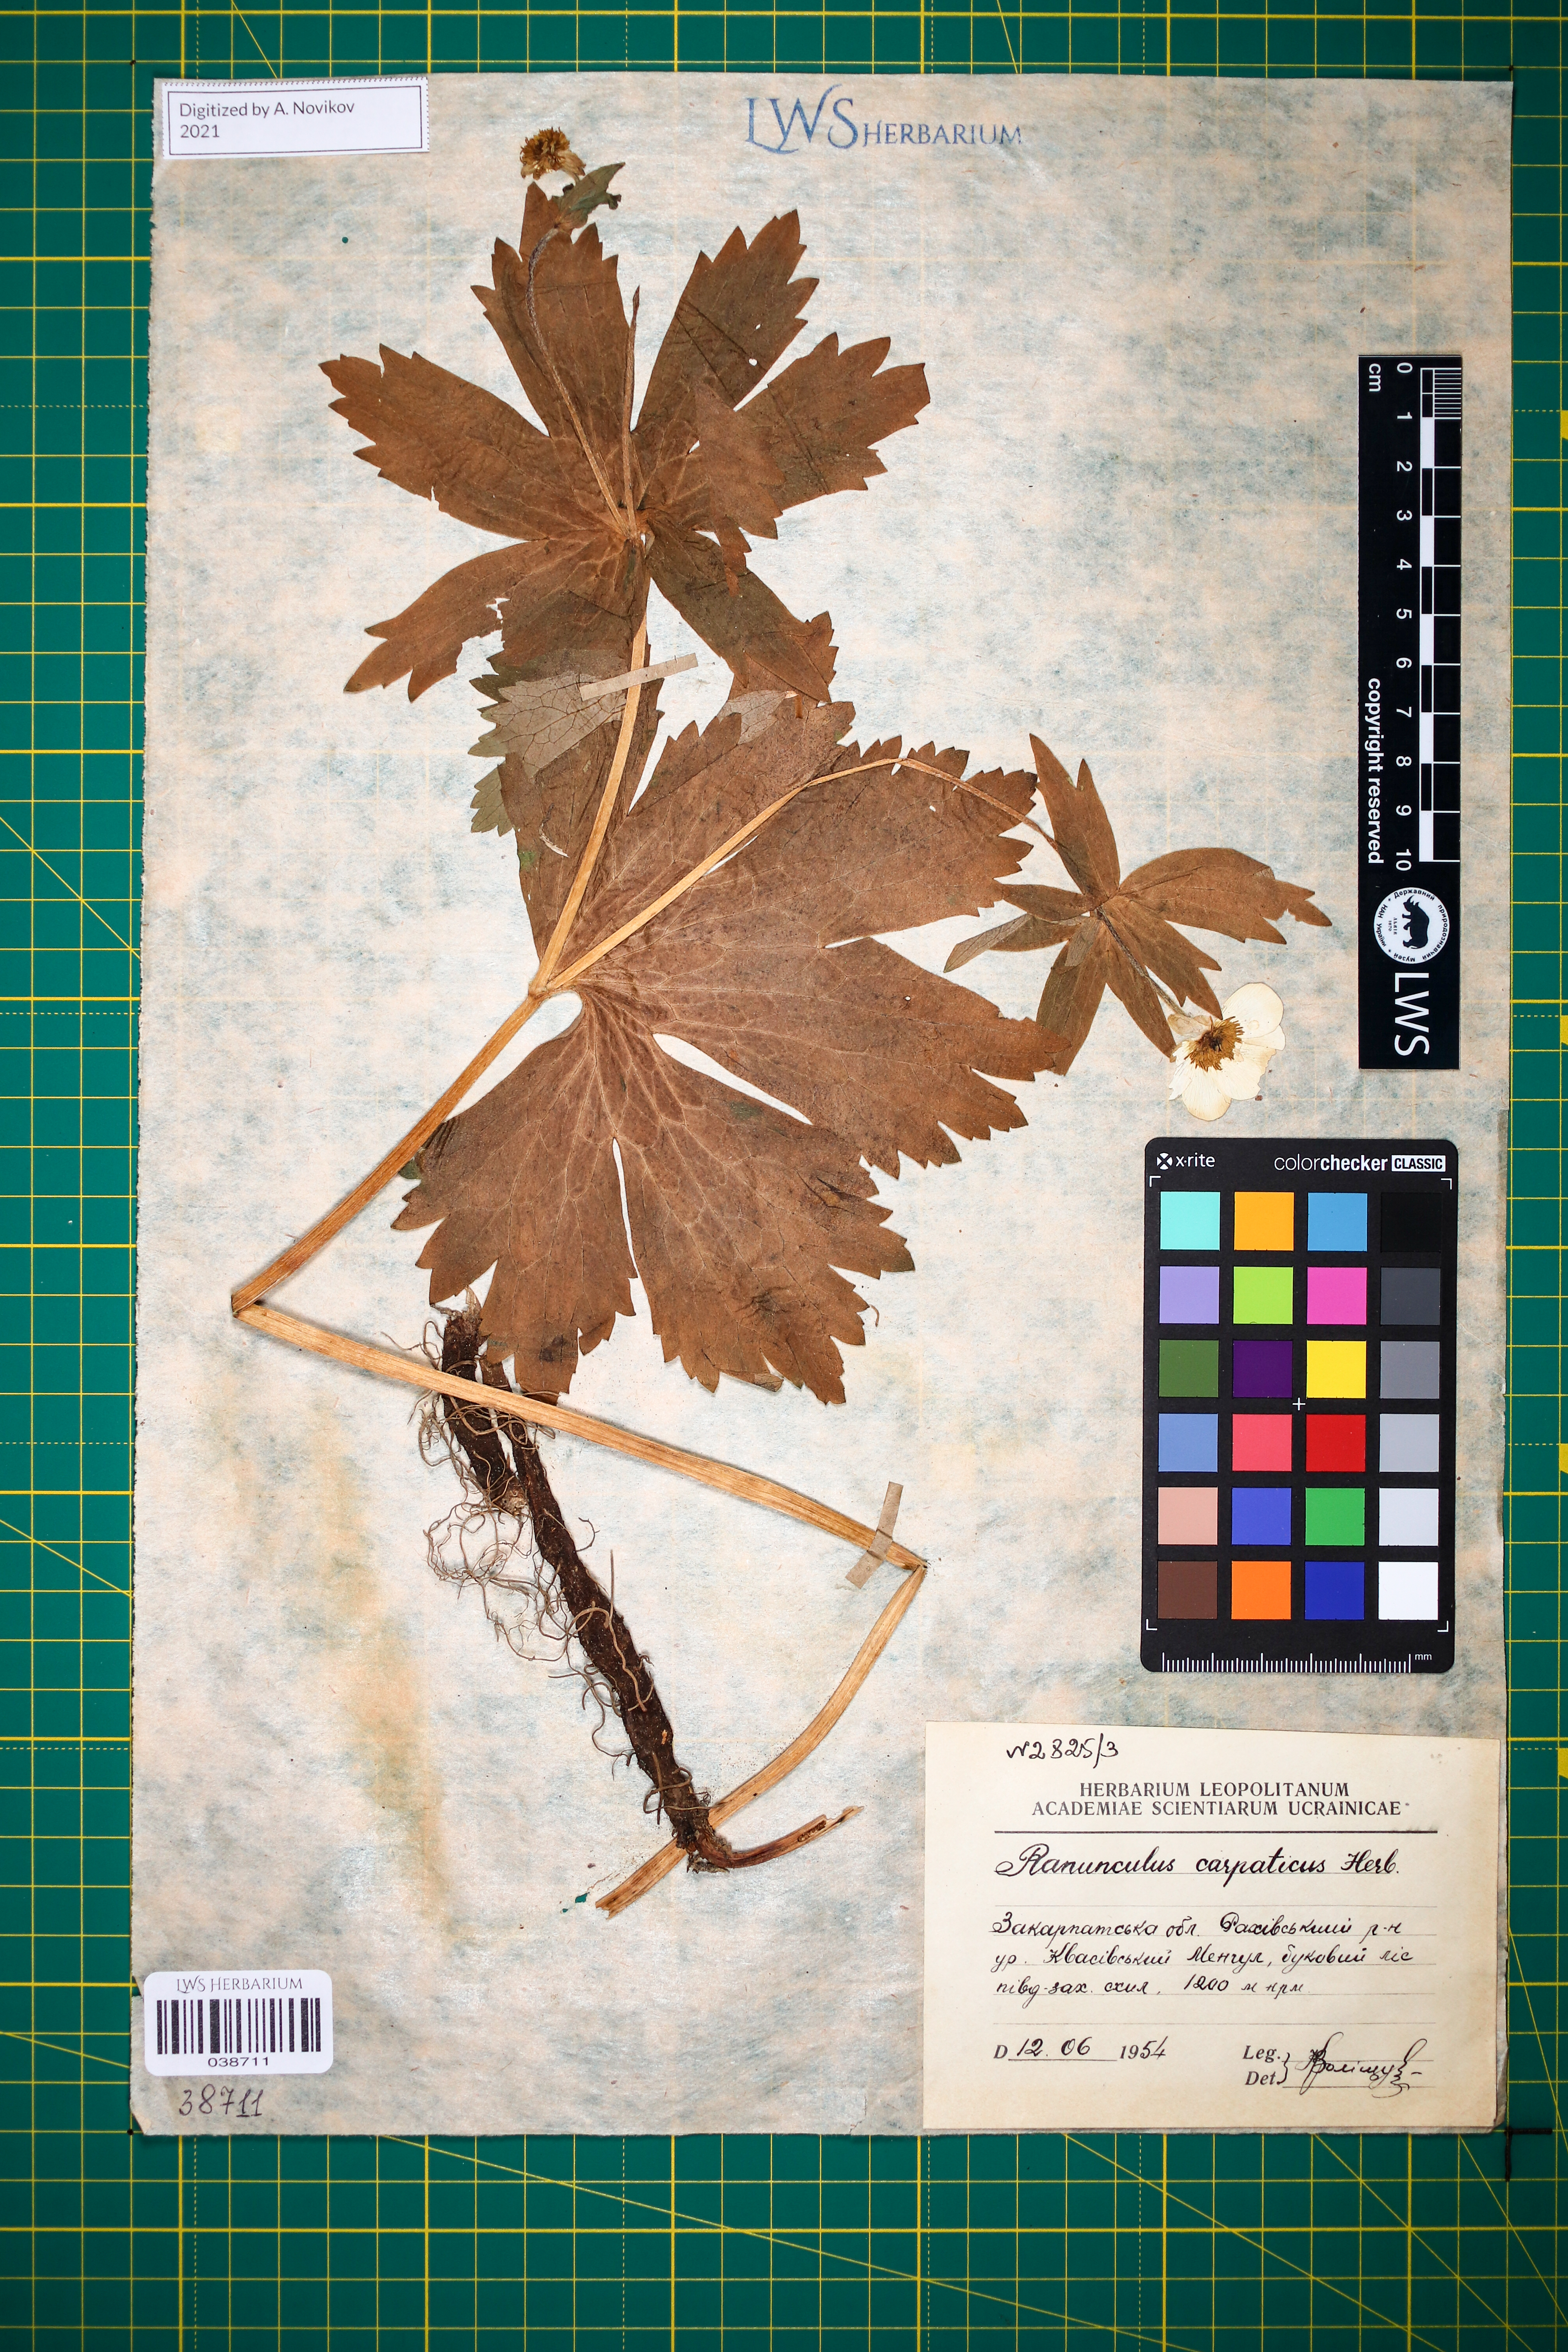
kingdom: Plantae
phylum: Tracheophyta
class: Magnoliopsida
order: Ranunculales
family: Ranunculaceae
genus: Ranunculus
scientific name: Ranunculus carpaticus
